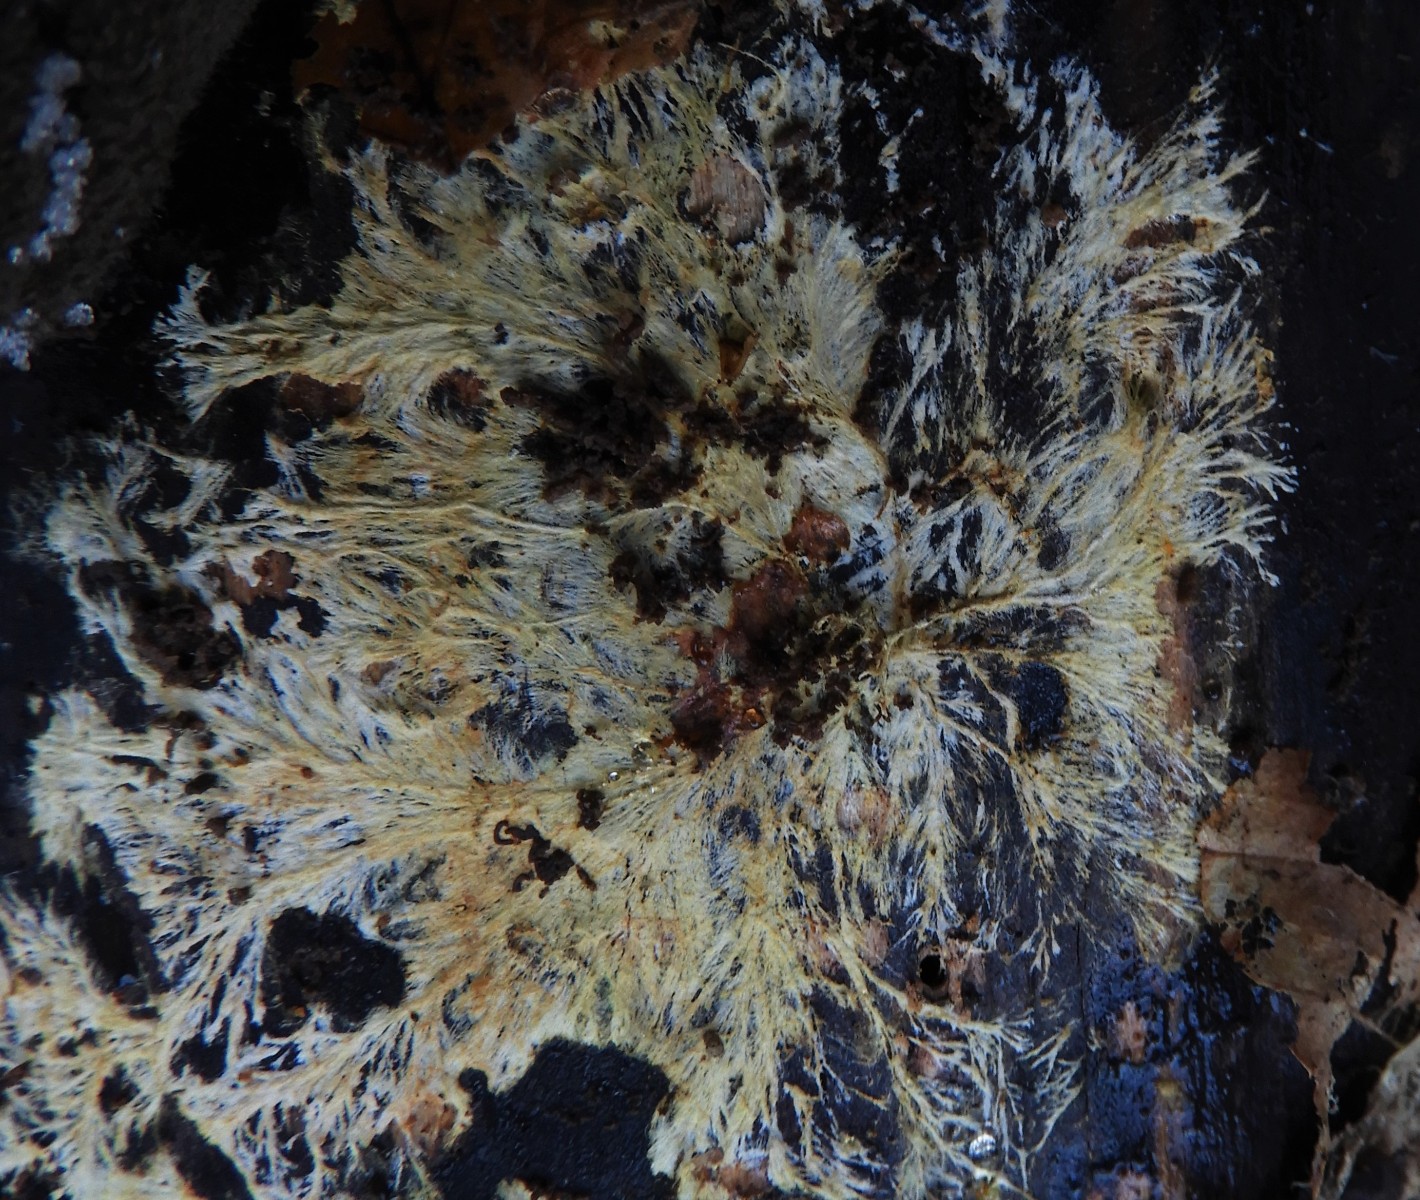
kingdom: Fungi
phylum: Basidiomycota
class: Agaricomycetes
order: Russulales
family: Xenasmataceae
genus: Xenasmatella
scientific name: Xenasmatella vaga
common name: svovl-strenghinde
